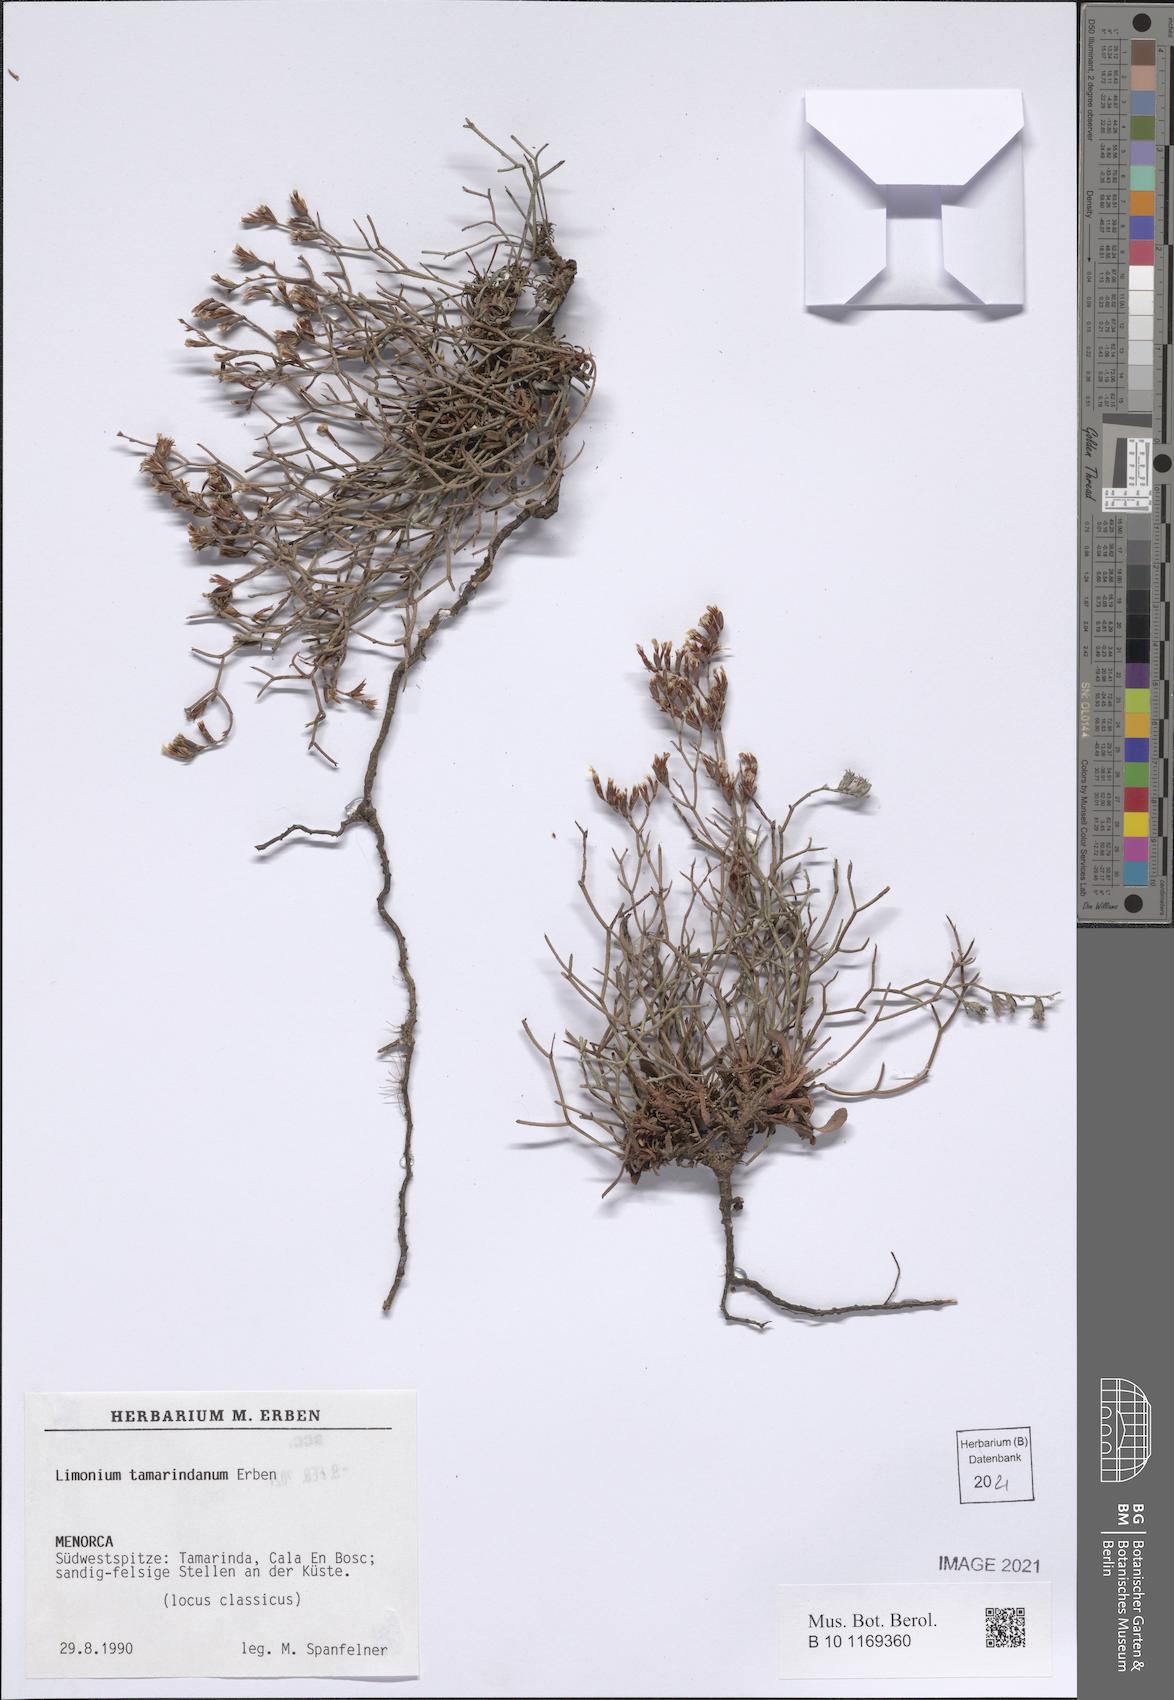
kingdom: Plantae
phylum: Tracheophyta
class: Magnoliopsida
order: Caryophyllales
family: Plumbaginaceae
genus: Limonium
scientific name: Limonium tamarindanum
